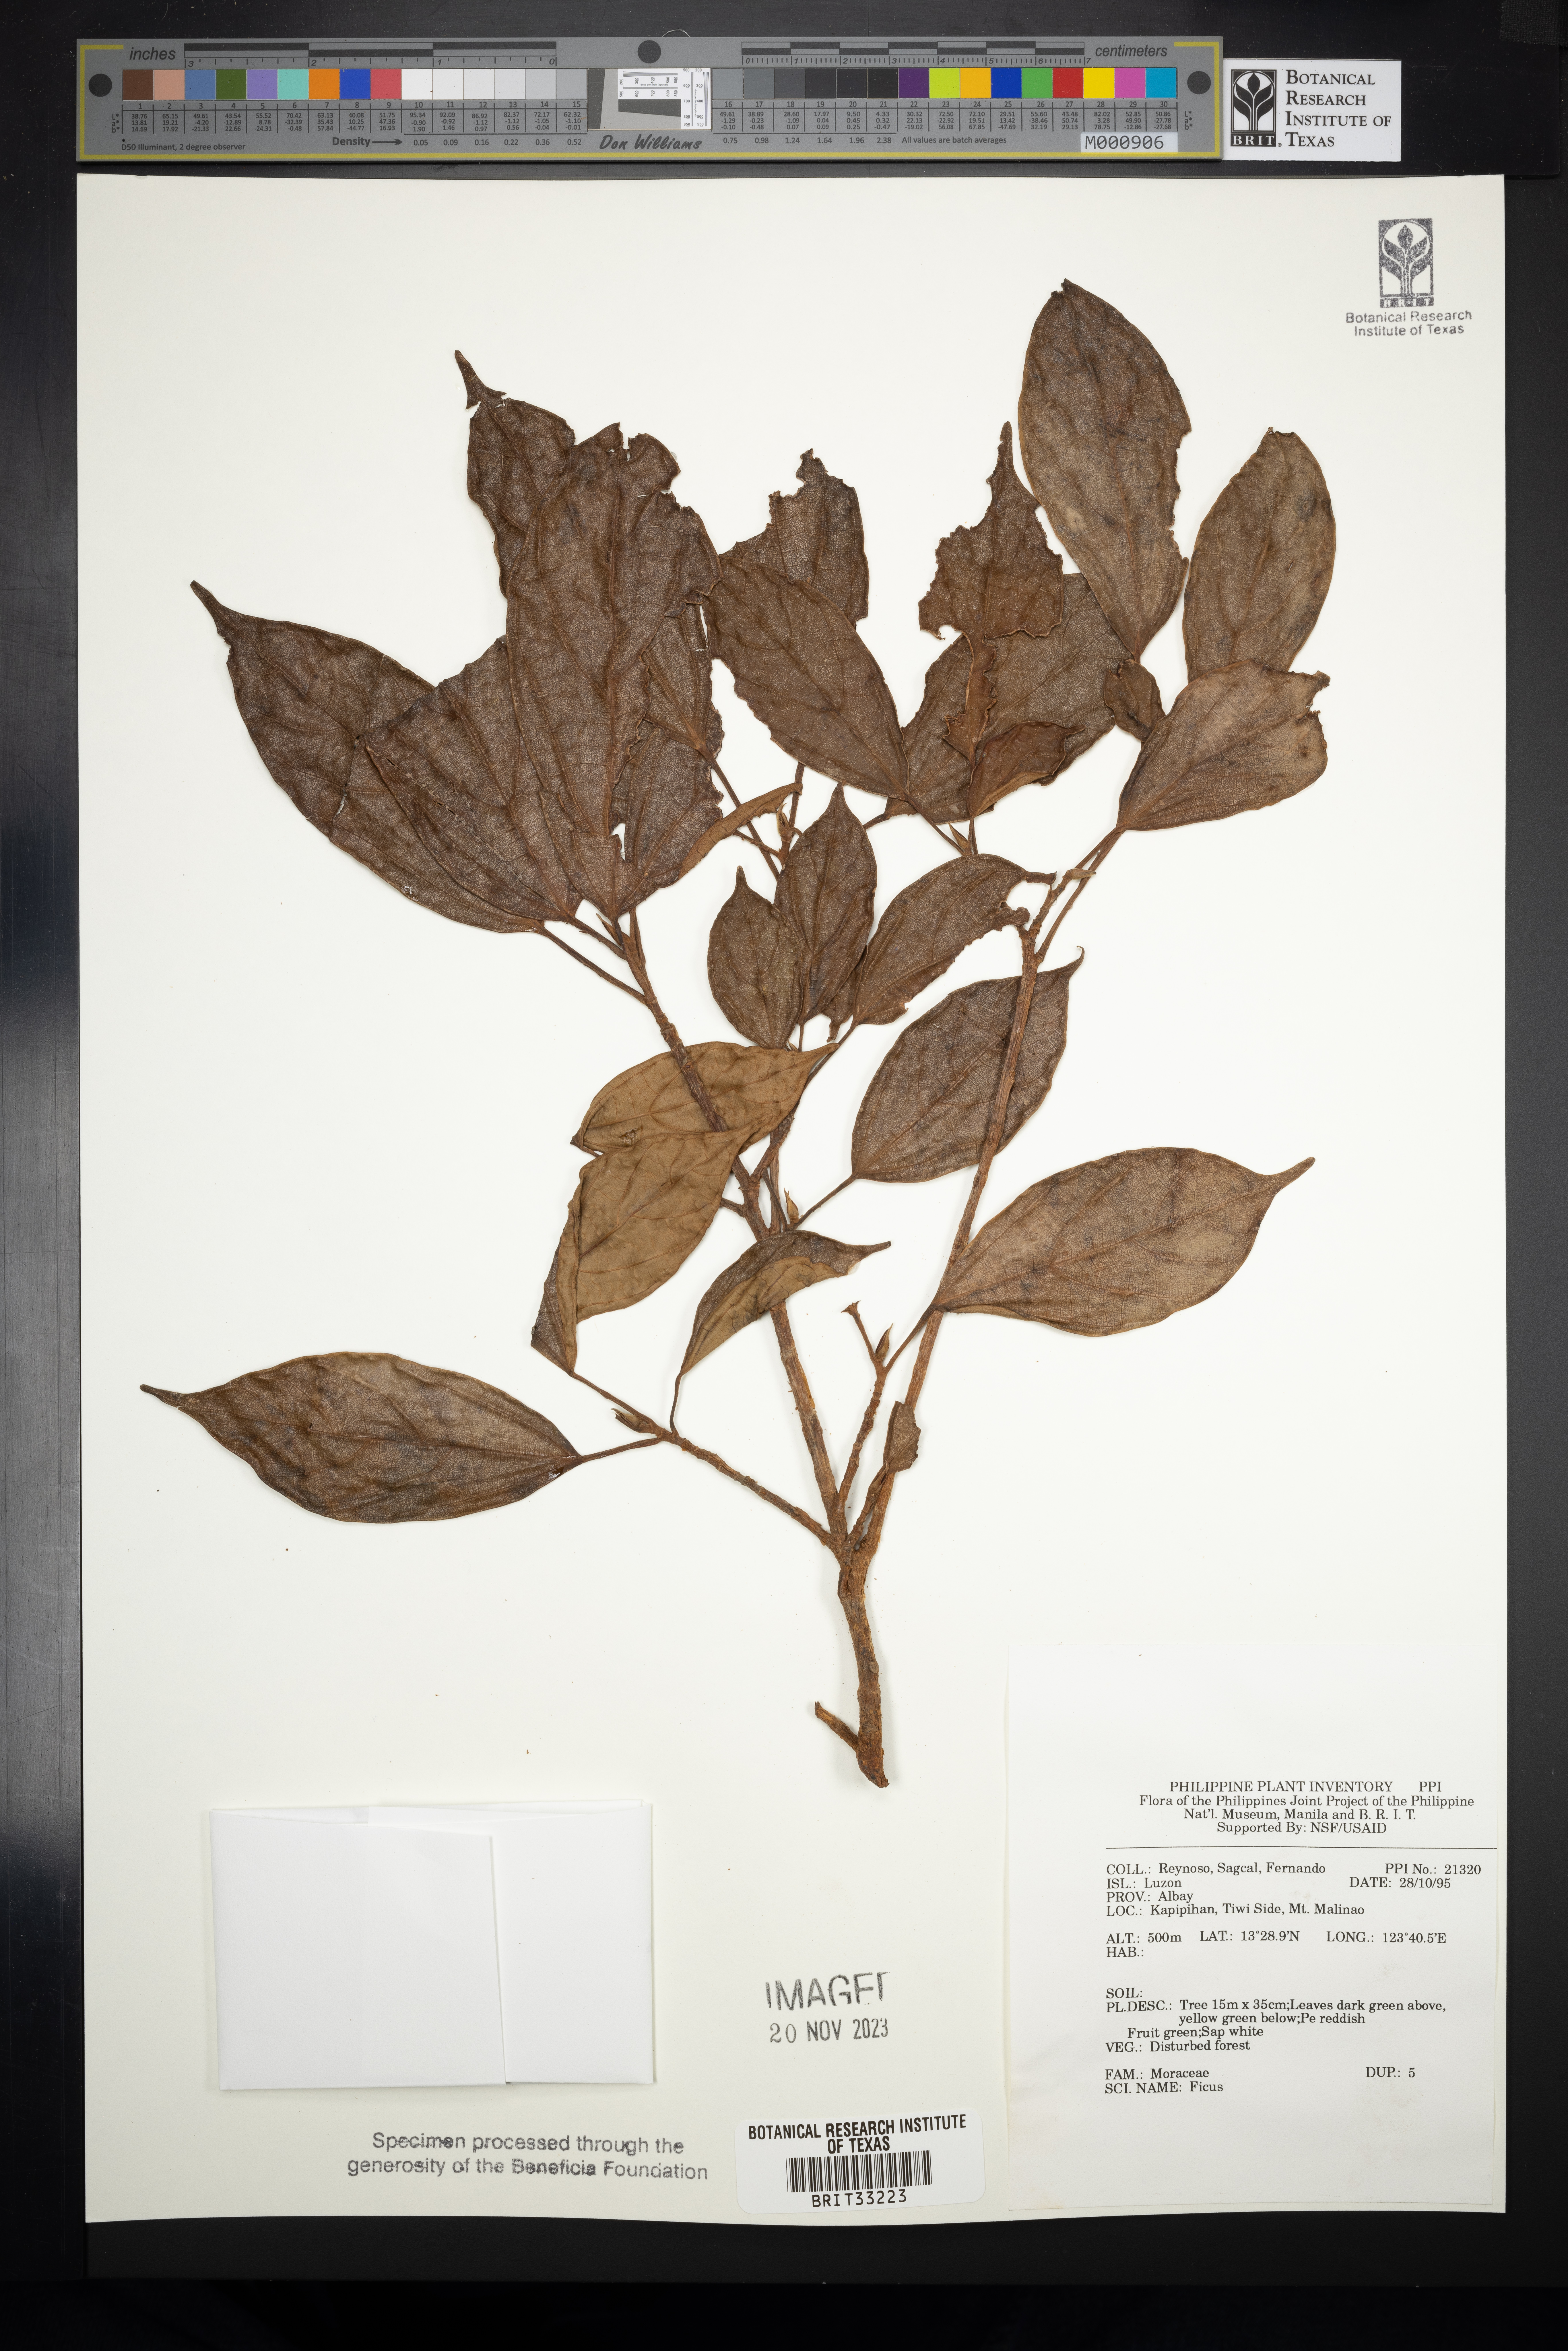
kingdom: Plantae
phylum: Tracheophyta
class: Magnoliopsida
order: Rosales
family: Moraceae
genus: Ficus
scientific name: Ficus
